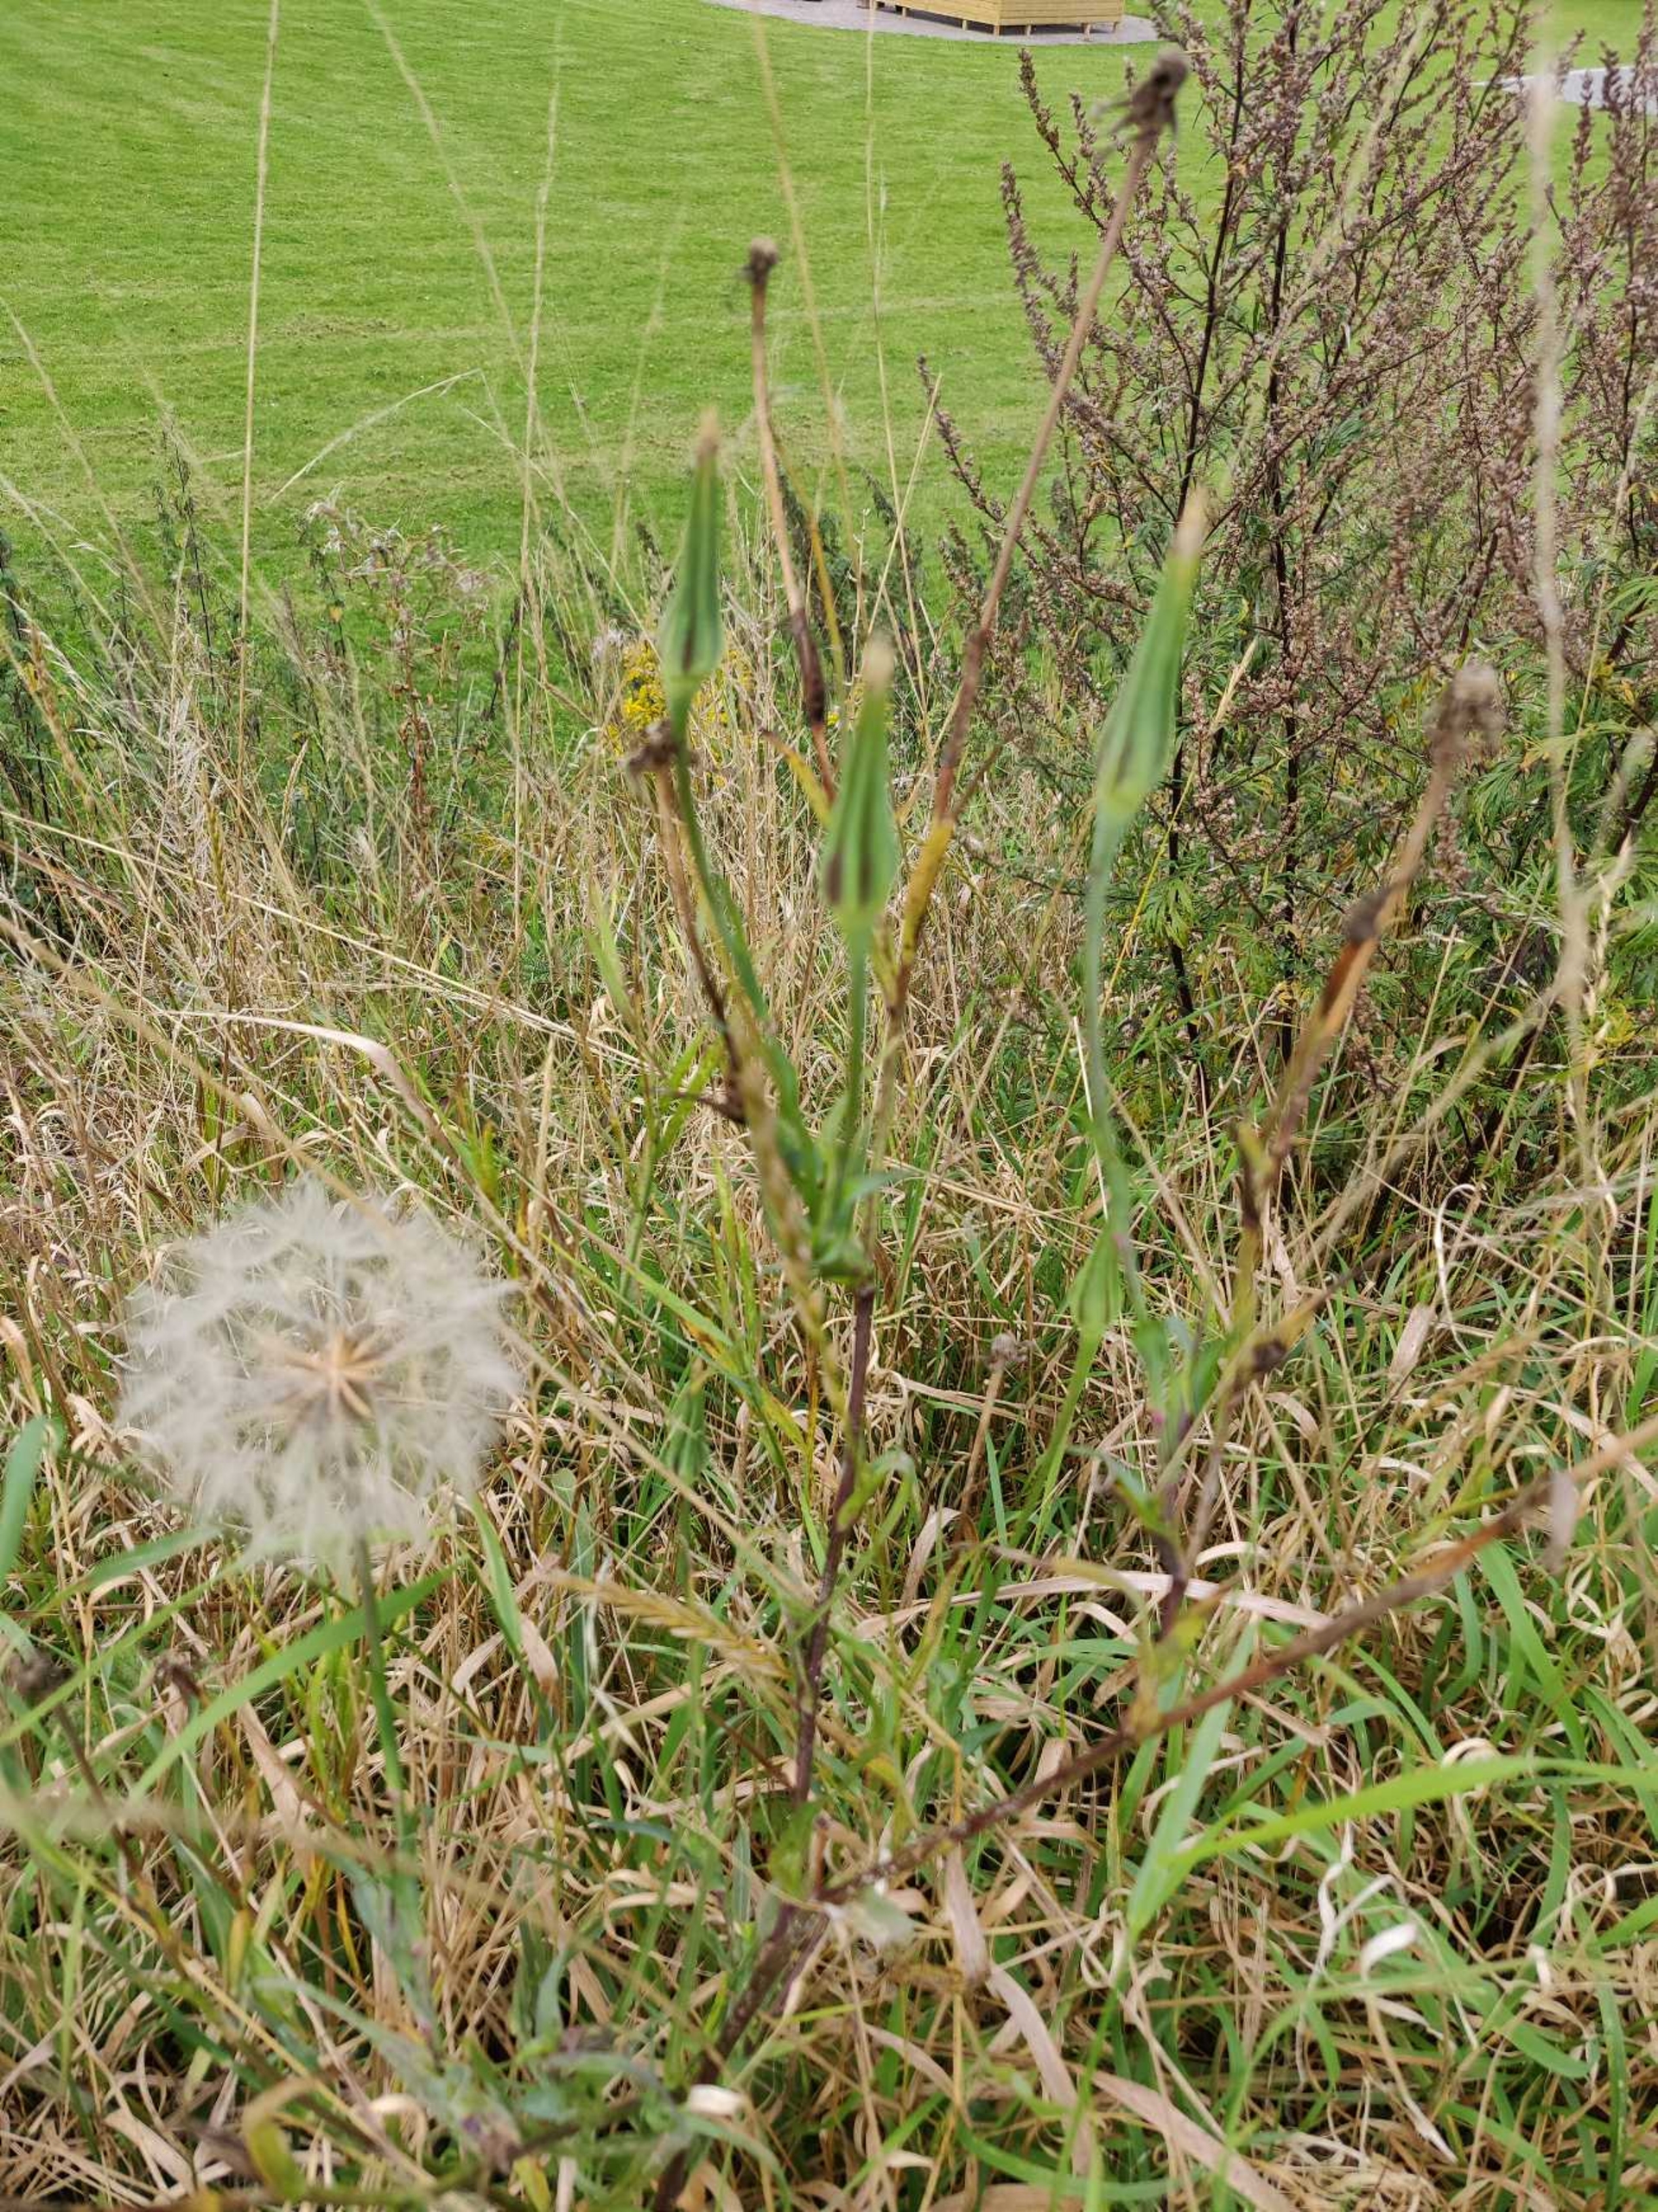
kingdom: Plantae
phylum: Tracheophyta
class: Magnoliopsida
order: Asterales
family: Asteraceae
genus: Tragopogon
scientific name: Tragopogon pratensis
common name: Gedeskæg
